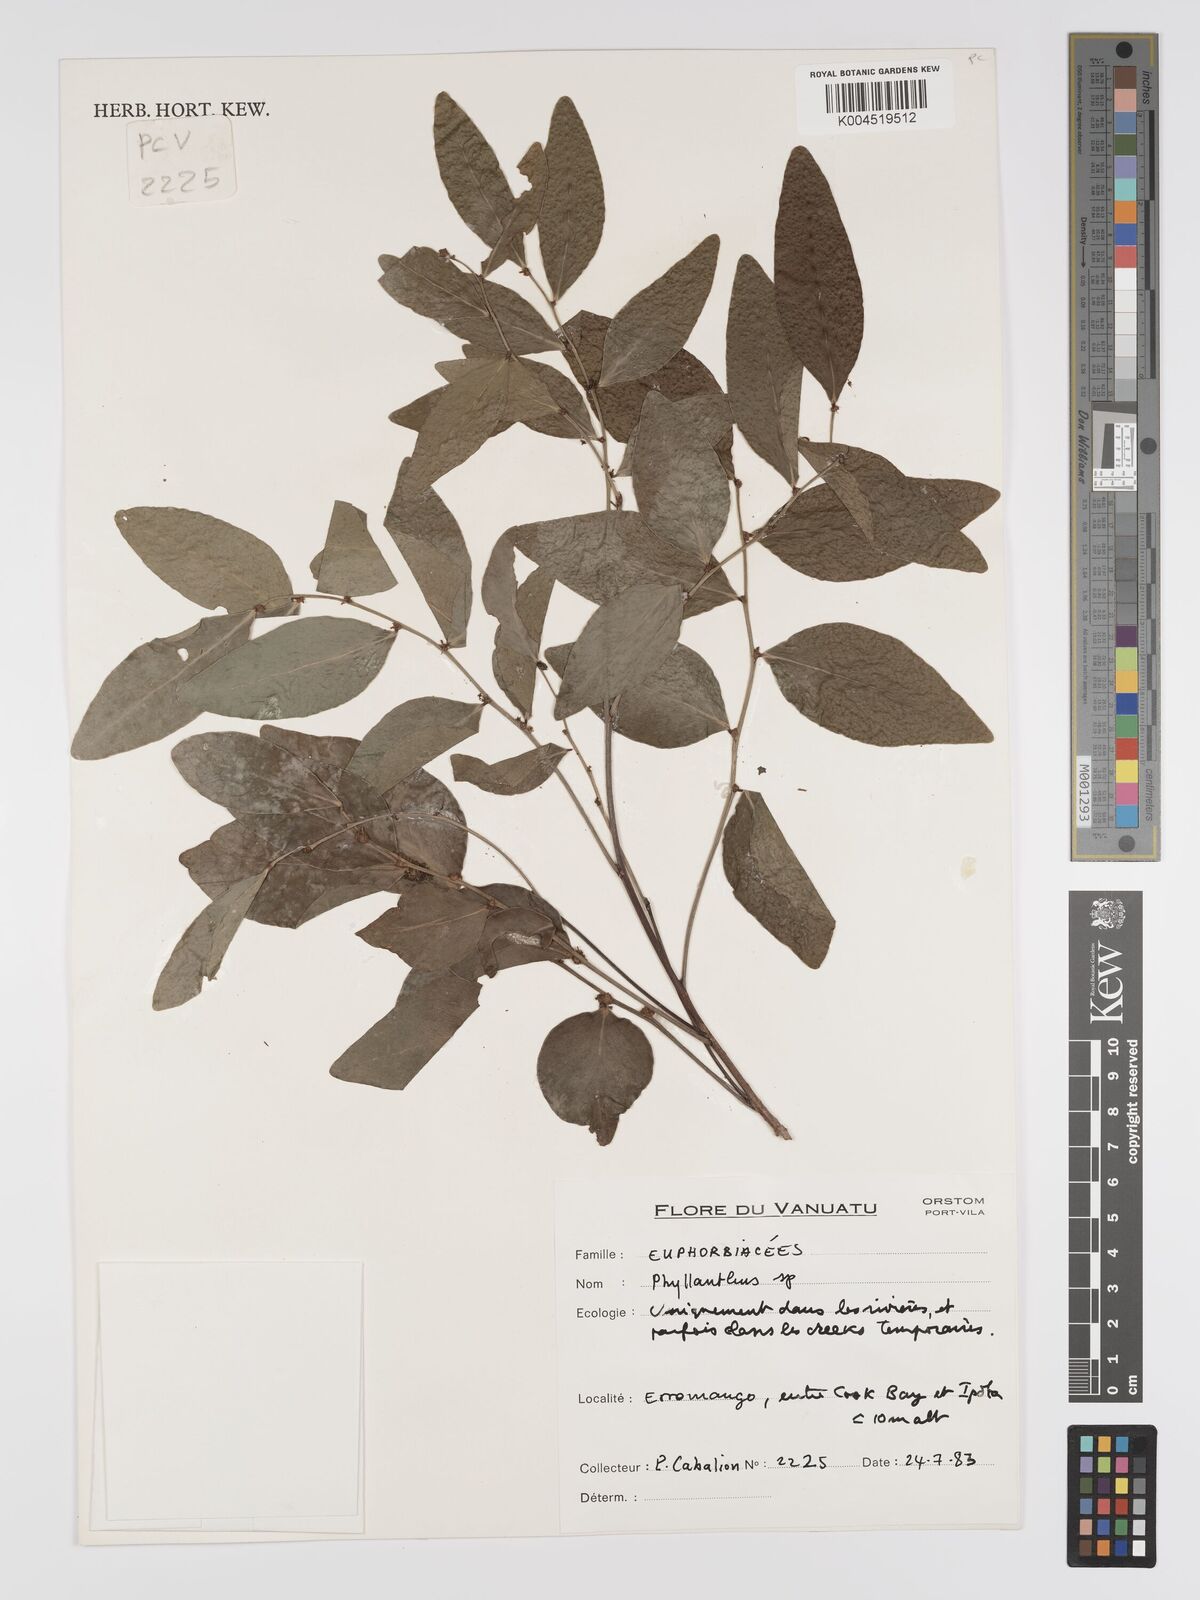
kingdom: Plantae
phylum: Tracheophyta
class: Magnoliopsida
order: Malpighiales
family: Phyllanthaceae
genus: Phyllanthus
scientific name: Phyllanthus
